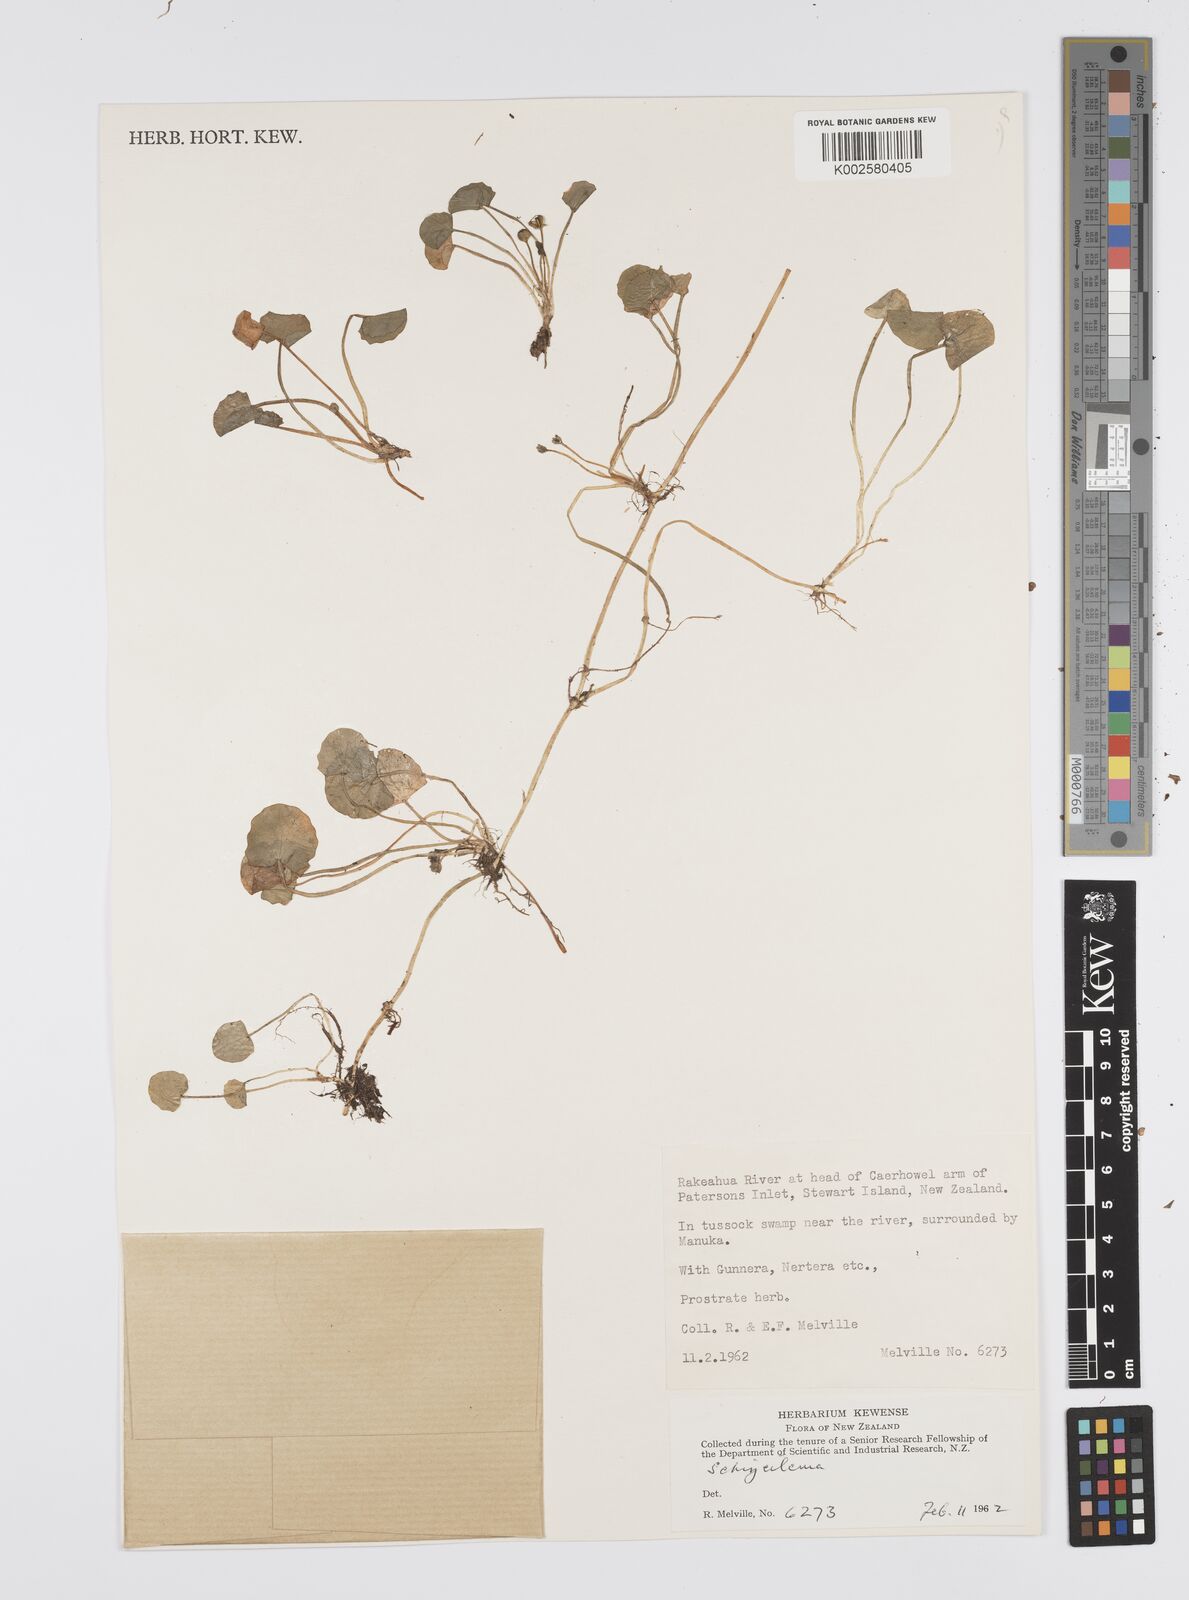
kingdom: Plantae
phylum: Tracheophyta
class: Magnoliopsida
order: Apiales
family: Apiaceae
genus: Centella
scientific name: Centella uniflora
